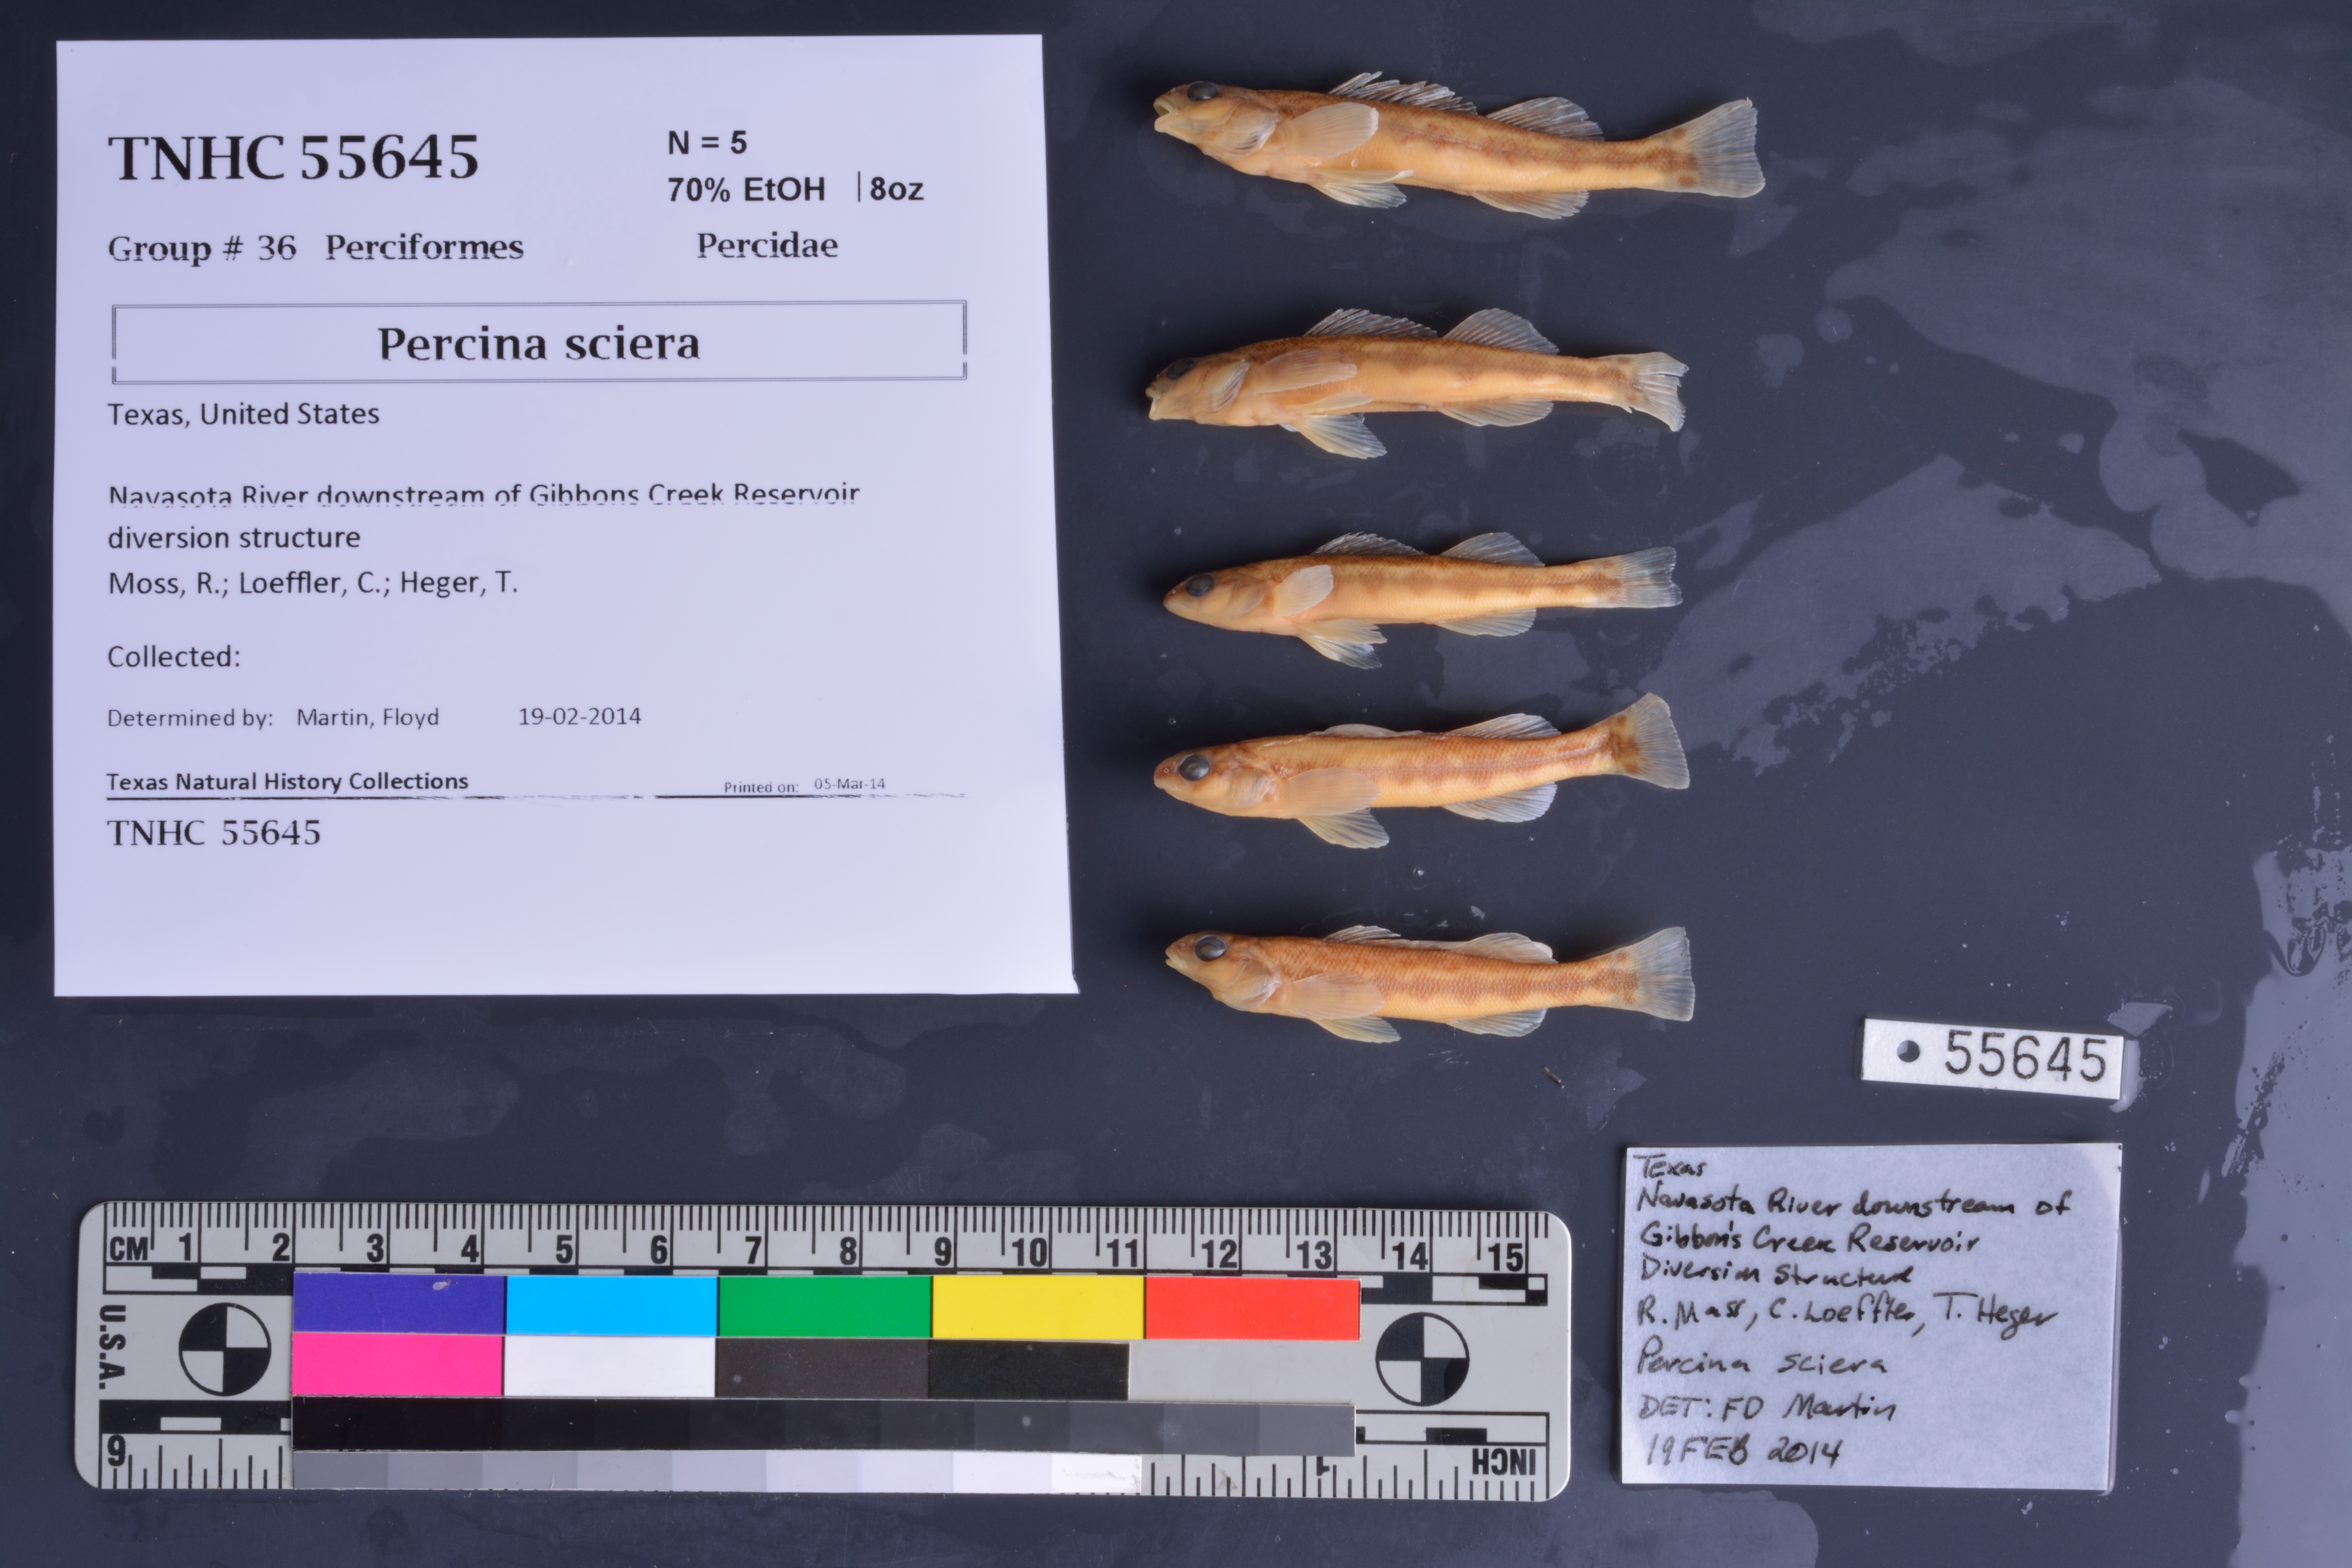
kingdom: Animalia
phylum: Chordata
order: Perciformes
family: Percidae
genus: Percina
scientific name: Percina sciera
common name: Dusky darter
